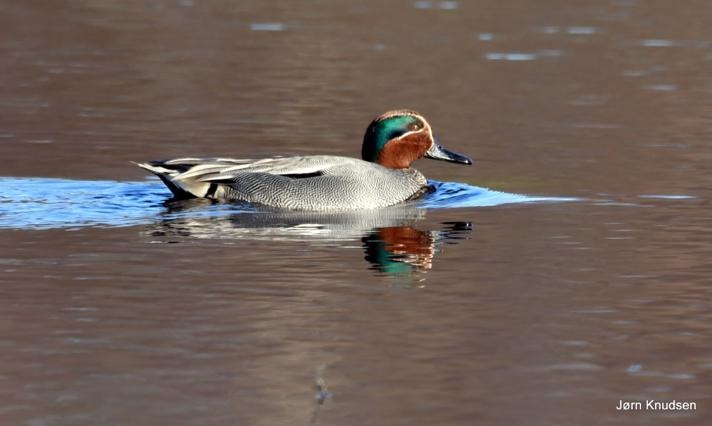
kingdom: Animalia
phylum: Chordata
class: Aves
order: Anseriformes
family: Anatidae
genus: Anas
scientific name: Anas crecca
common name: Krikand
